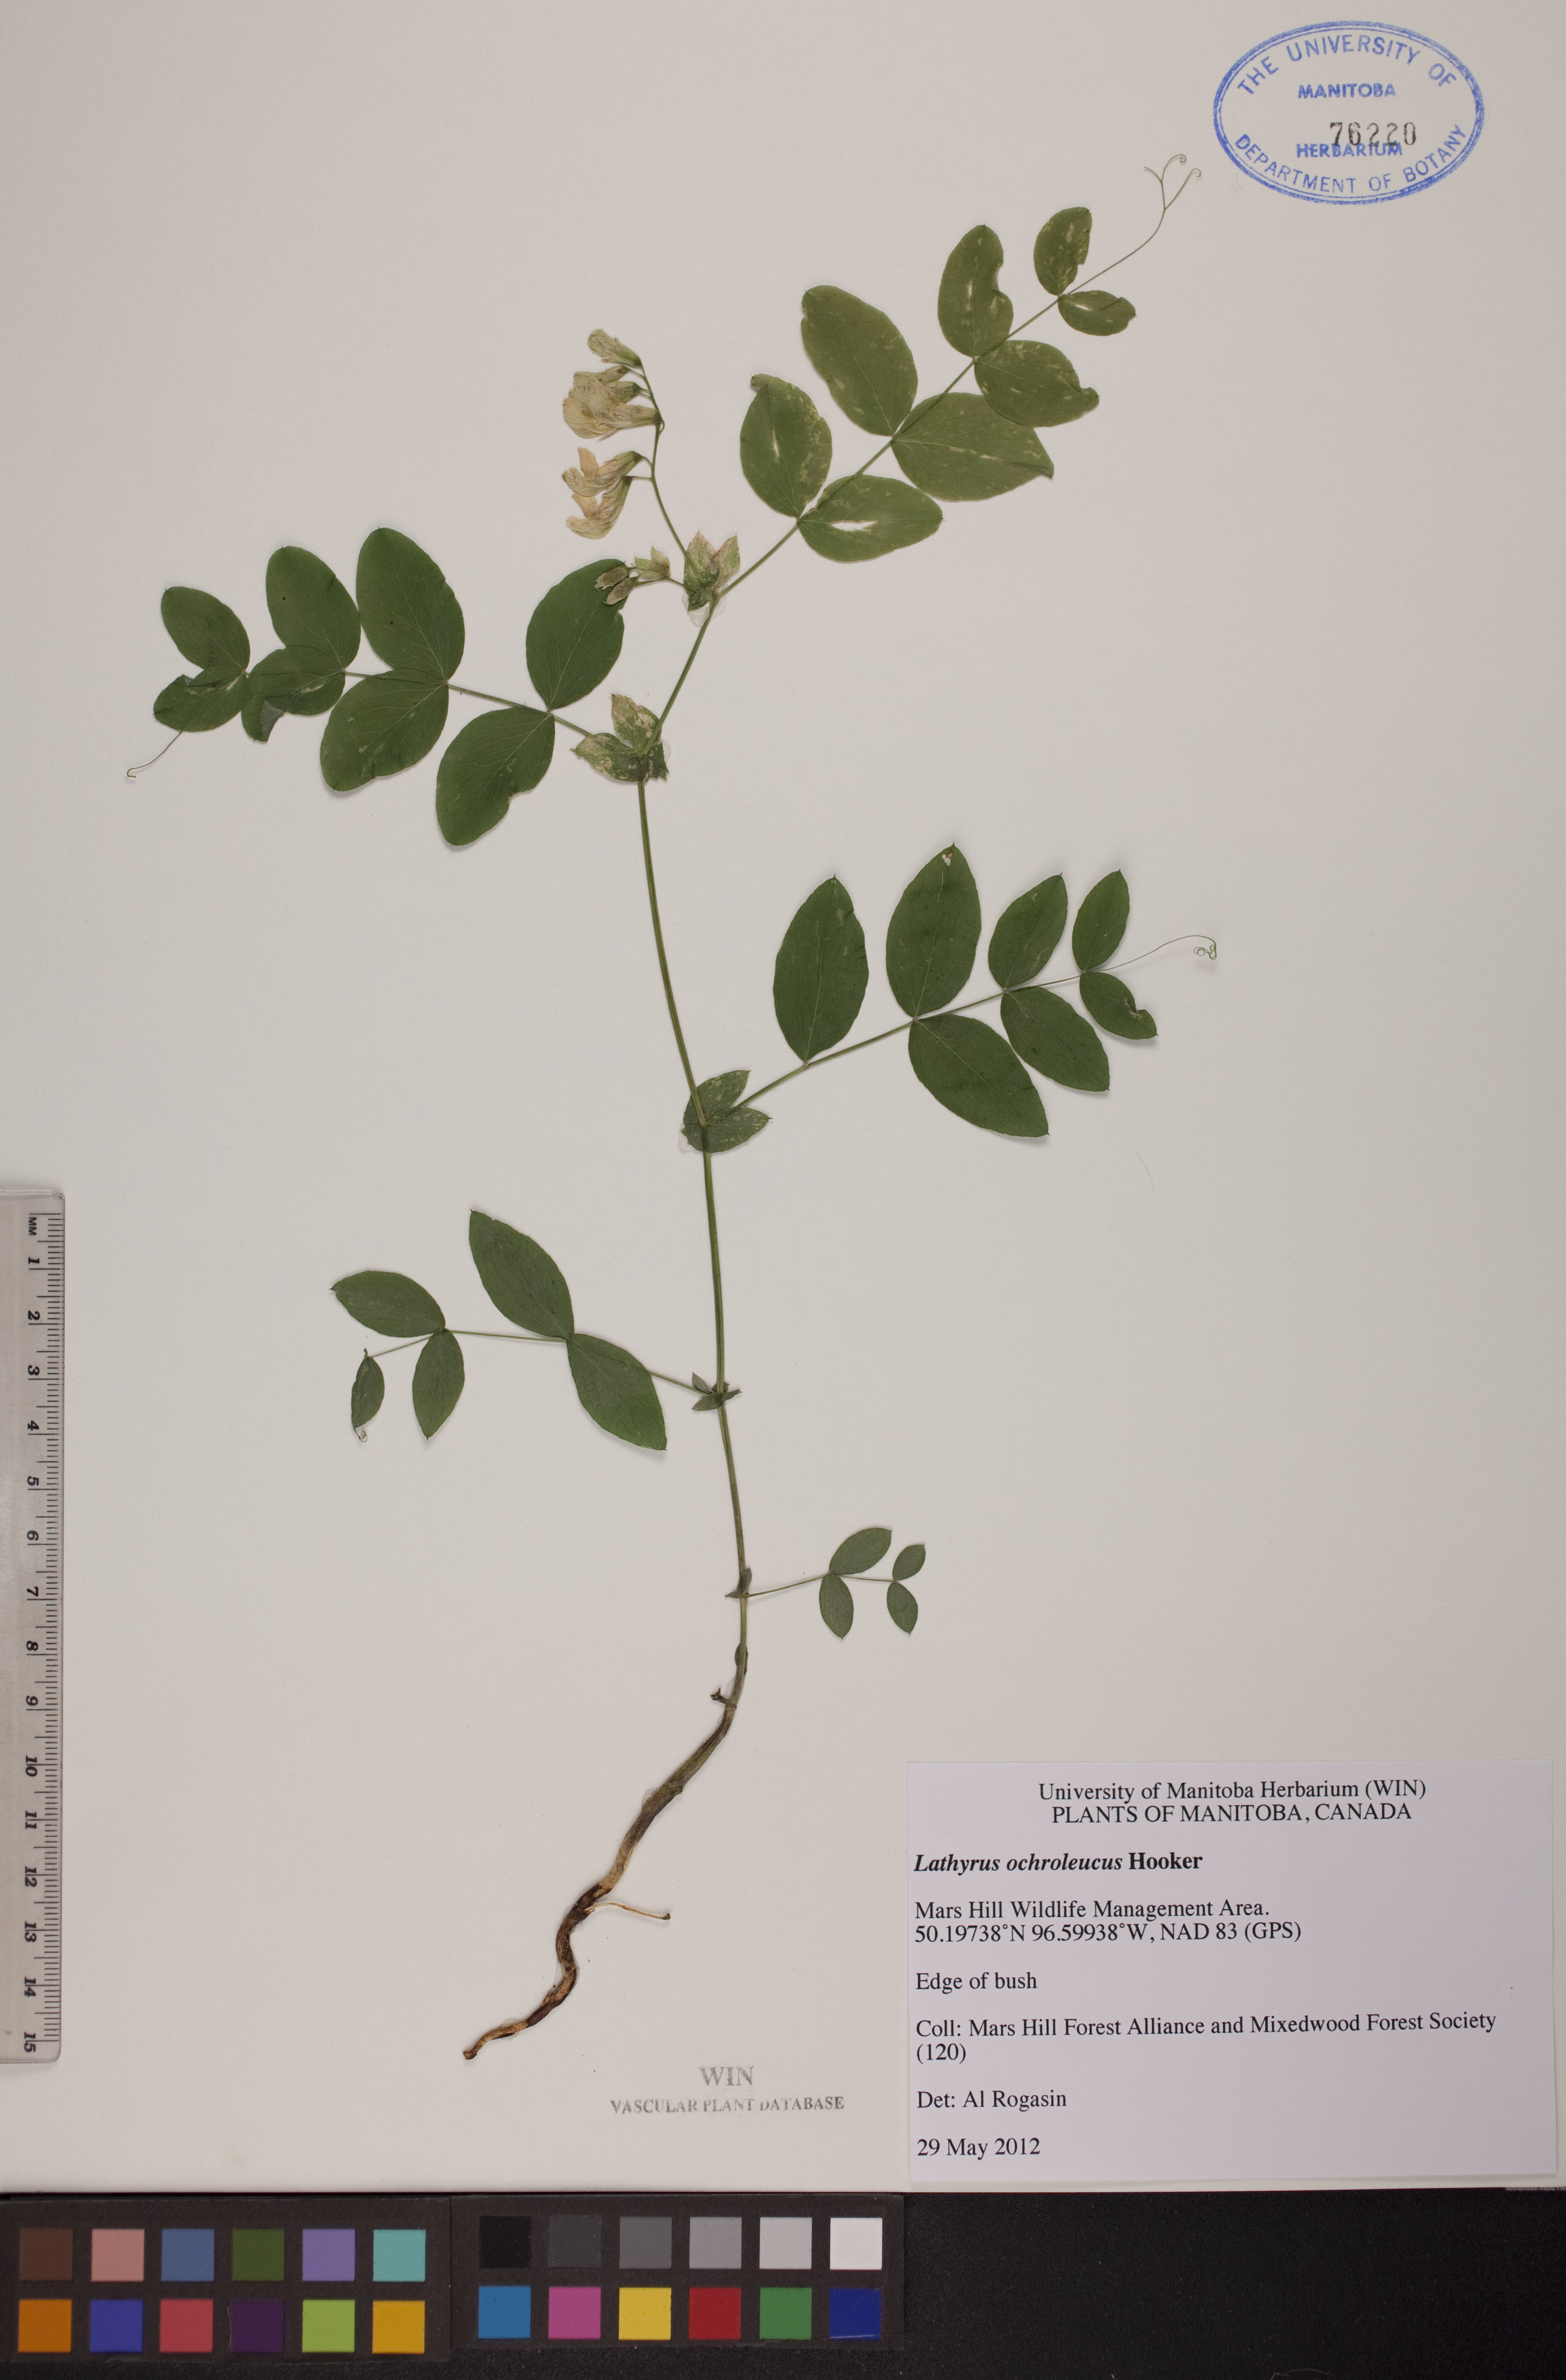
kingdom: Plantae
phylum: Tracheophyta
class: Magnoliopsida
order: Fabales
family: Fabaceae
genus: Lathyrus
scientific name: Lathyrus ochroleucus
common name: Pale vetchling
